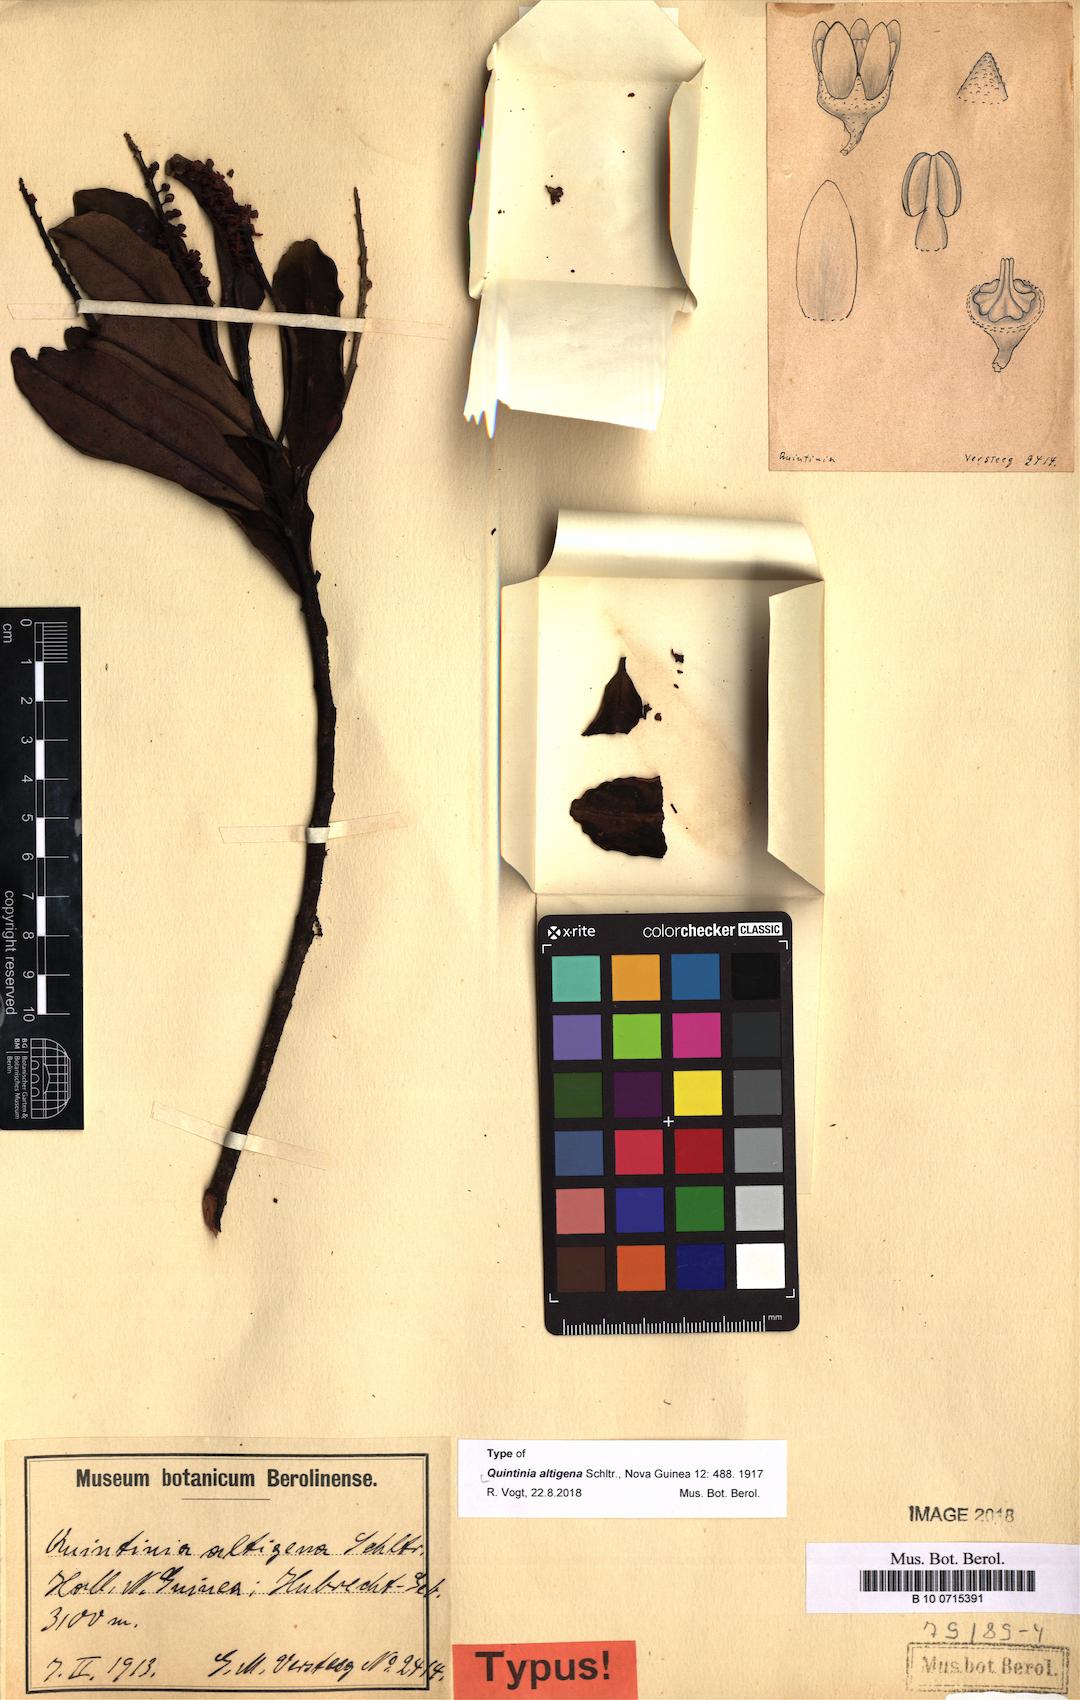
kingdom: Plantae
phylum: Tracheophyta
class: Magnoliopsida
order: Paracryphiales
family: Paracryphiaceae
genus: Quintinia
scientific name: Quintinia altigena
